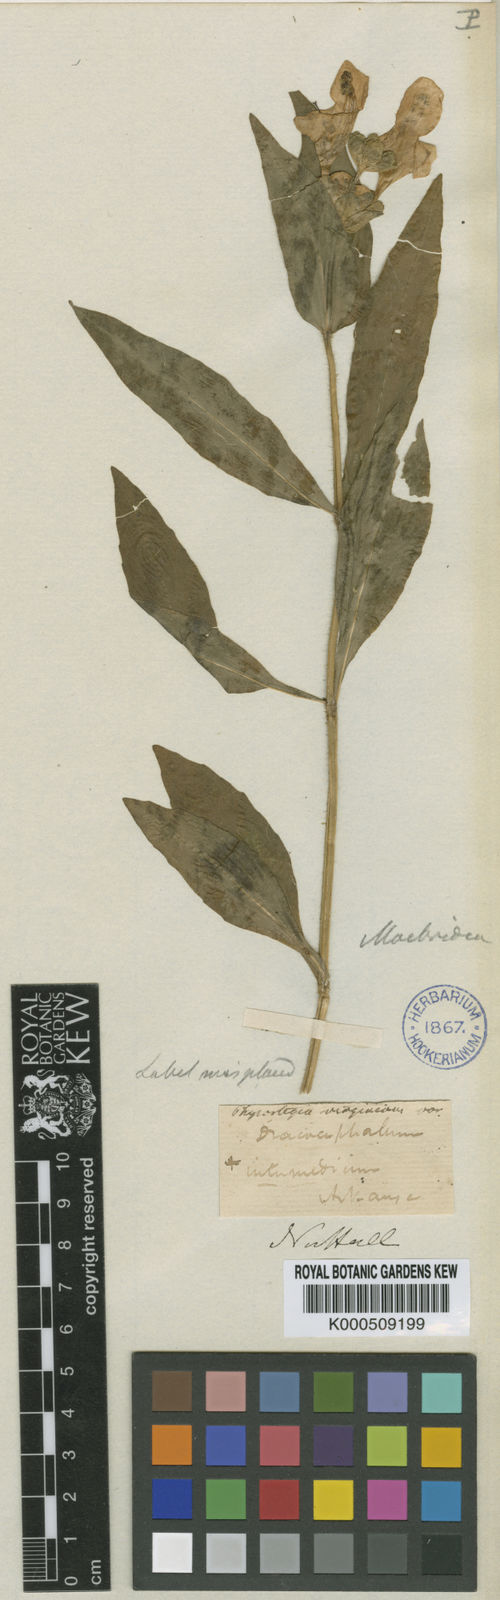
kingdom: Plantae
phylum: Tracheophyta
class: Magnoliopsida
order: Lamiales
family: Lamiaceae
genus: Macbridea
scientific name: Macbridea caroliniana
